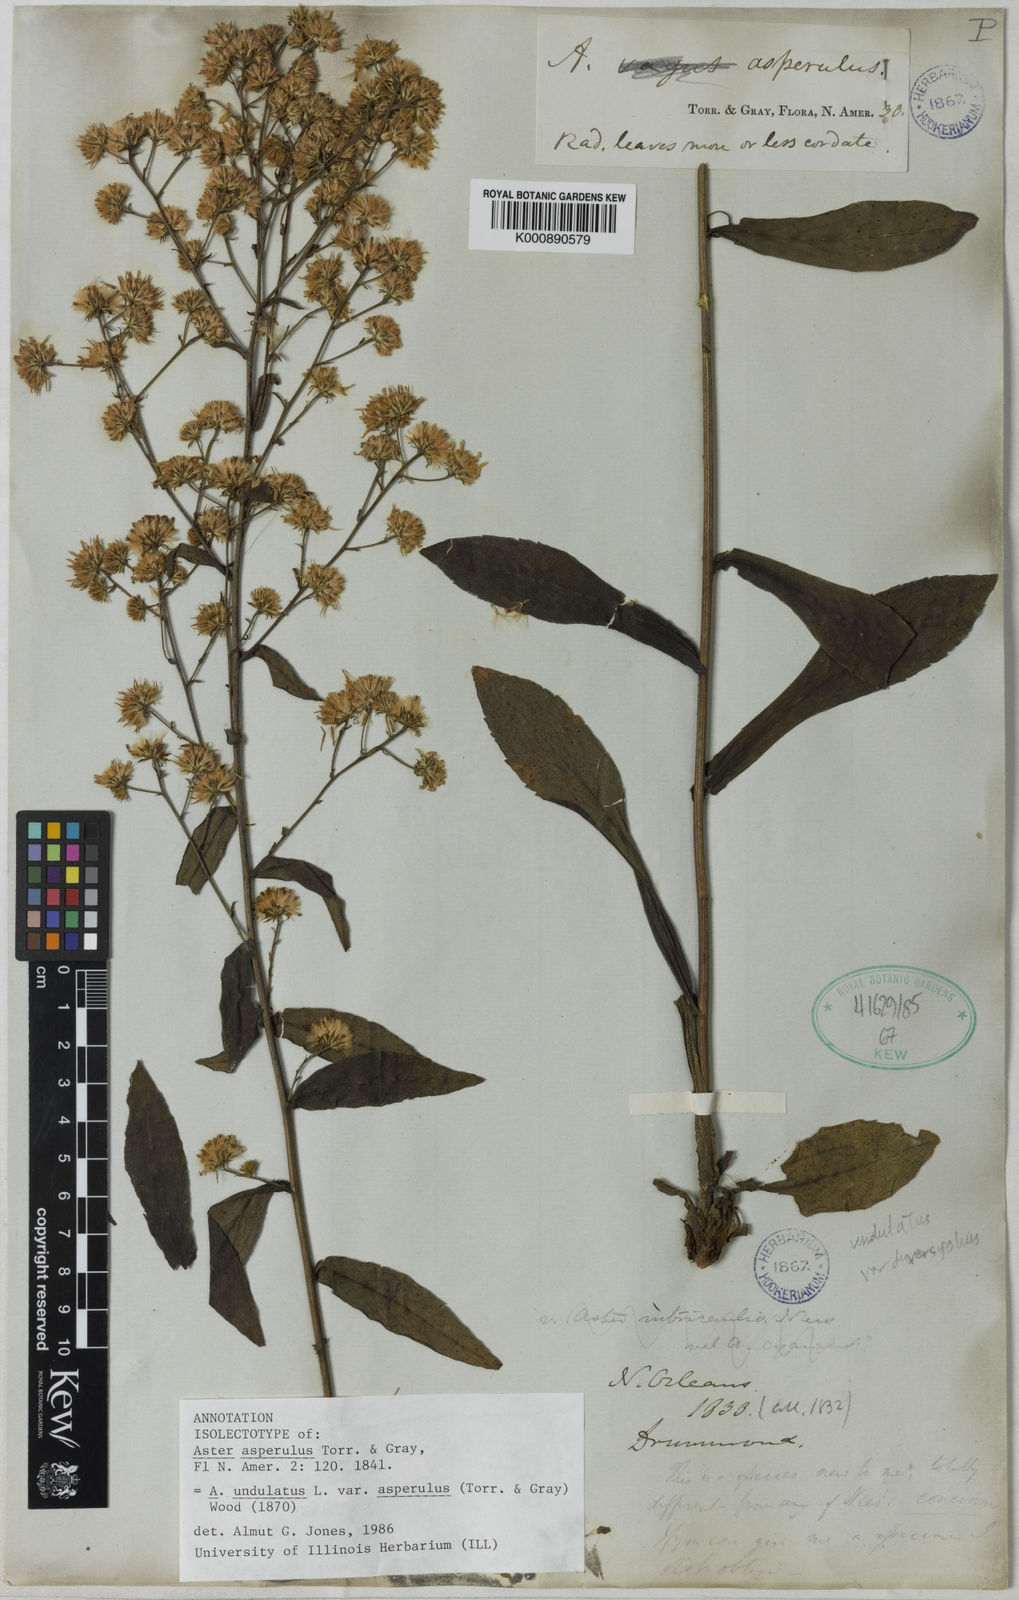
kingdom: Plantae
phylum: Tracheophyta
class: Magnoliopsida
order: Asterales
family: Asteraceae
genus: Symphyotrichum
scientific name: Symphyotrichum undulatum
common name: Clasping heart-leaf aster
